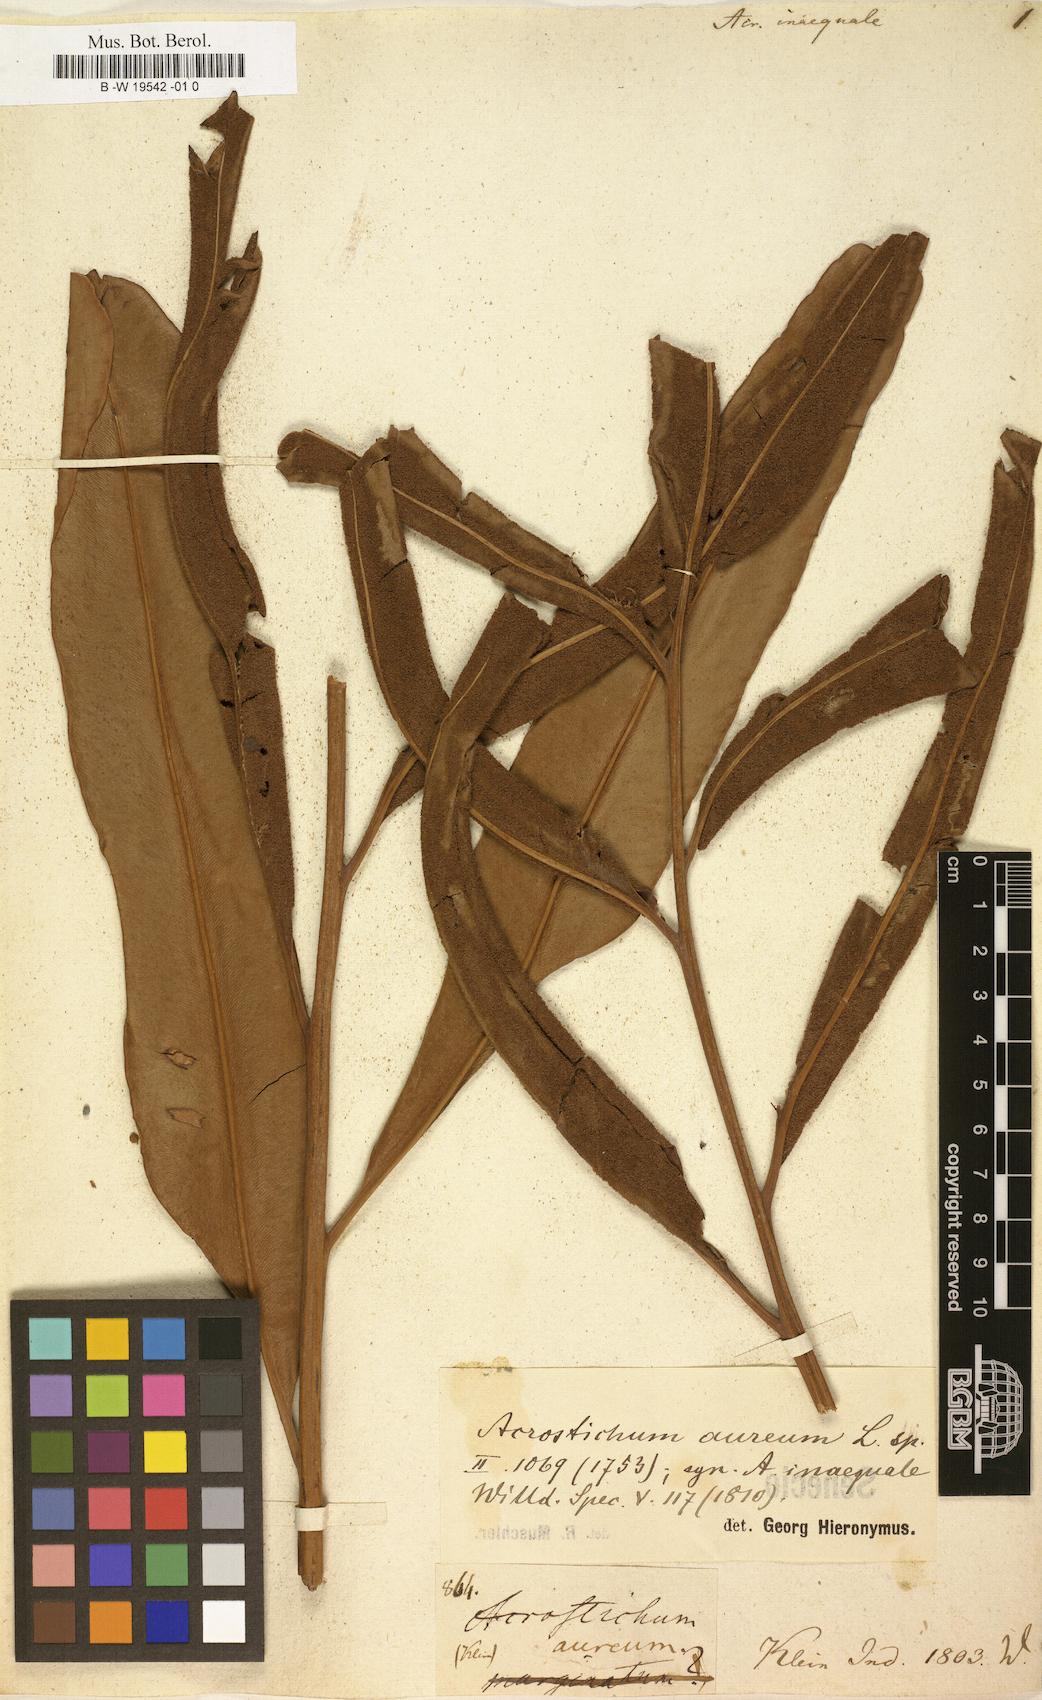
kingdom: Plantae
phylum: Tracheophyta
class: Polypodiopsida
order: Polypodiales
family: Pteridaceae
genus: Acrostichum
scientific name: Acrostichum aureum
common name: Leather fern
